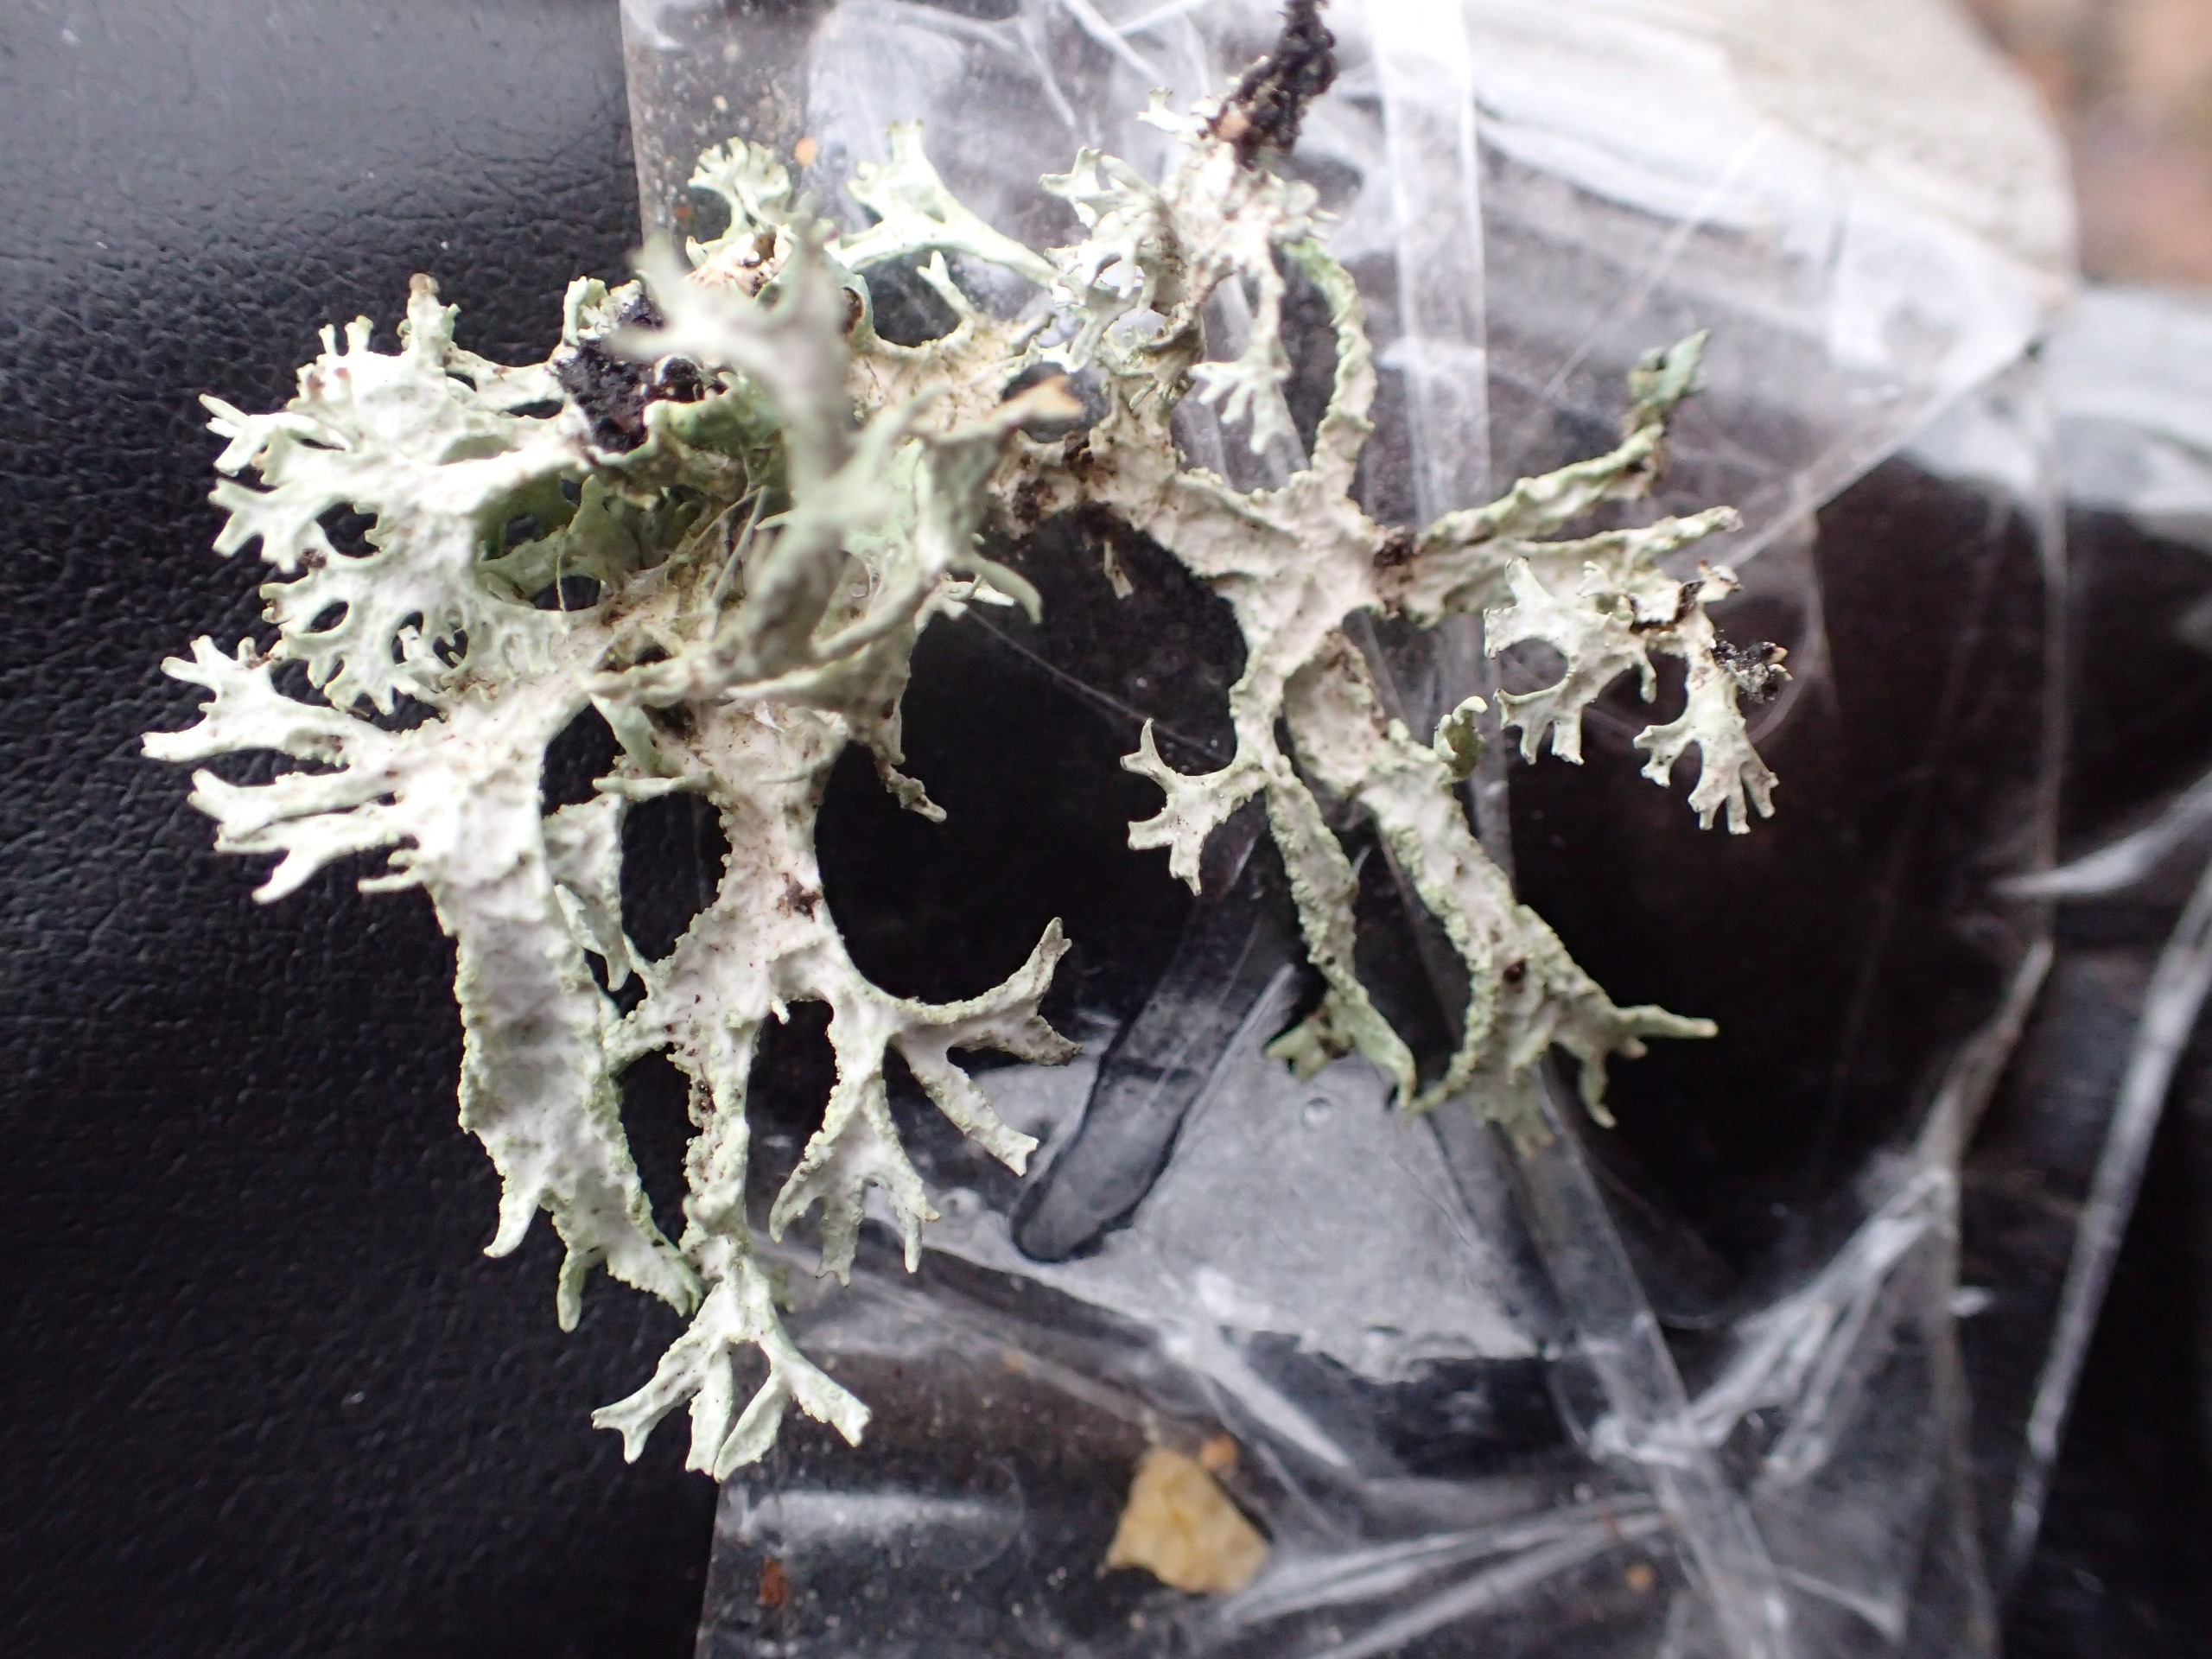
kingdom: Fungi
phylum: Ascomycota
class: Lecanoromycetes
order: Lecanorales
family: Parmeliaceae
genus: Evernia
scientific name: Evernia prunastri
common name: Almindelig slåenlav
